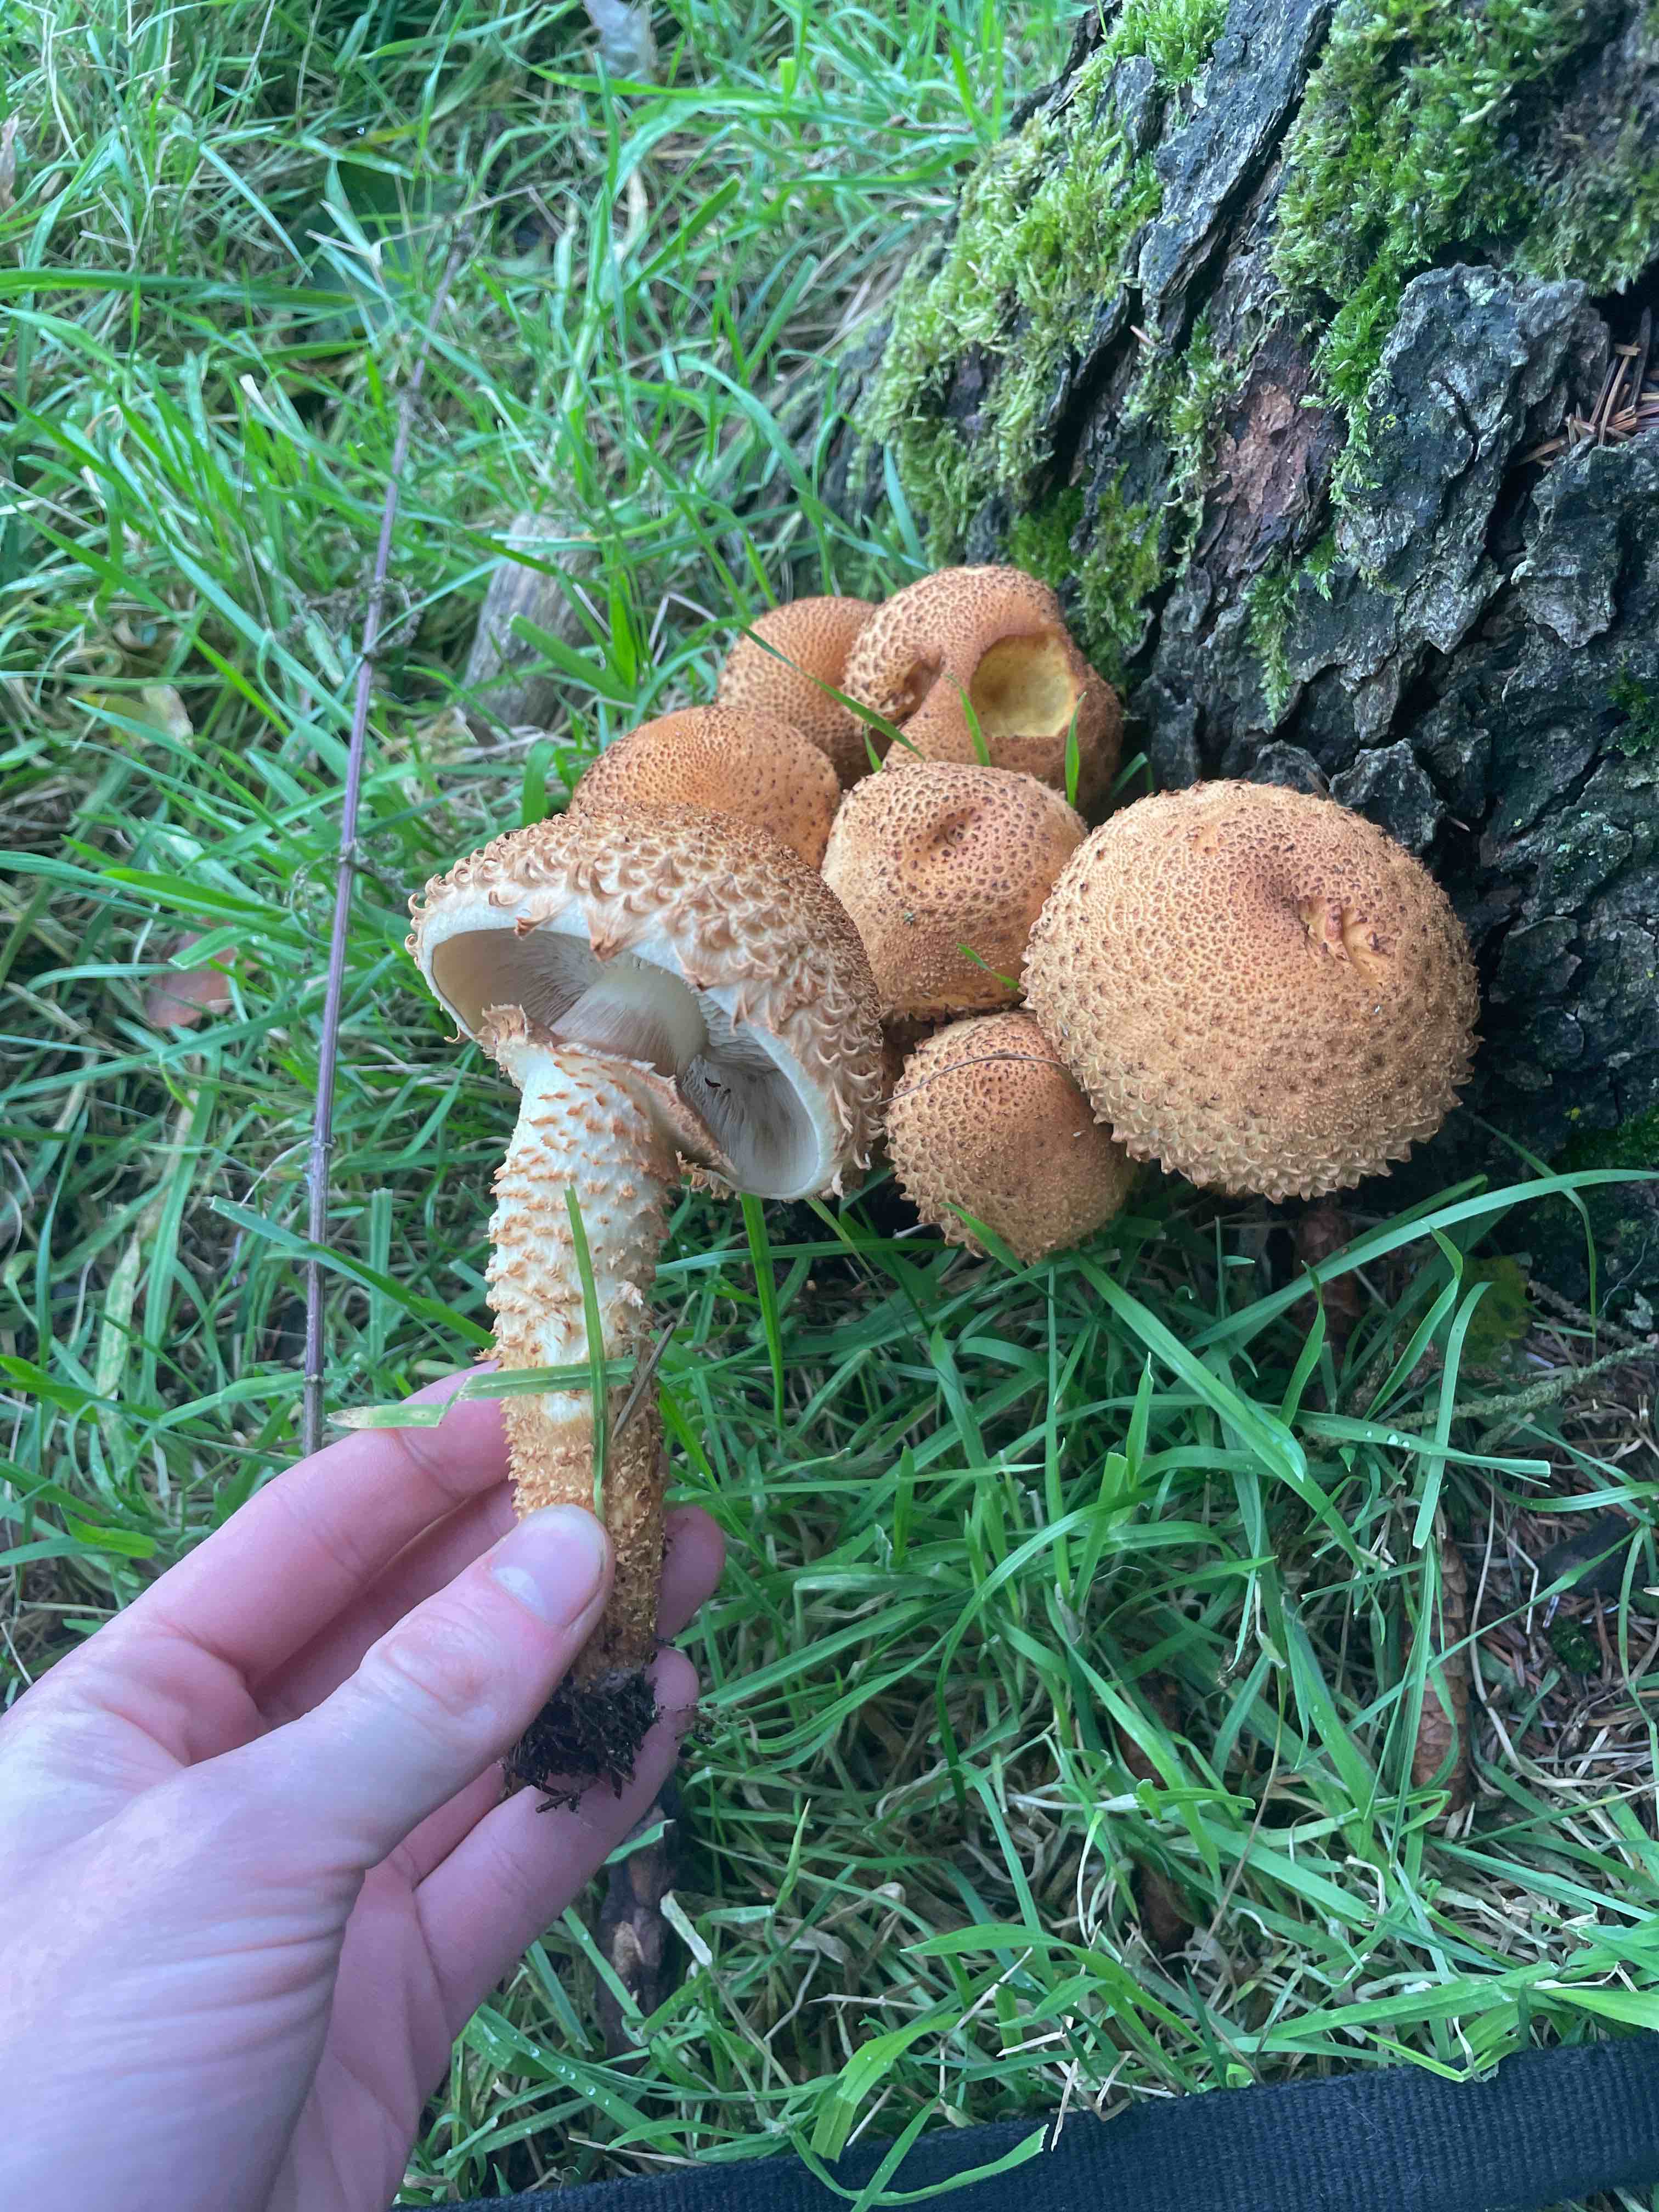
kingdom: Fungi
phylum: Basidiomycota
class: Agaricomycetes
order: Agaricales
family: Strophariaceae
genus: Pholiota
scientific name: Pholiota squarrosa
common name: krumskællet skælhat
